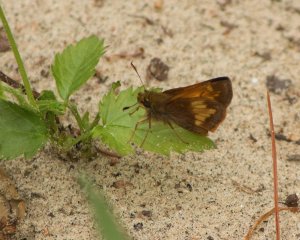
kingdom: Animalia
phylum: Arthropoda
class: Insecta
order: Lepidoptera
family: Hesperiidae
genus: Polites
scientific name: Polites coras
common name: Peck's Skipper
